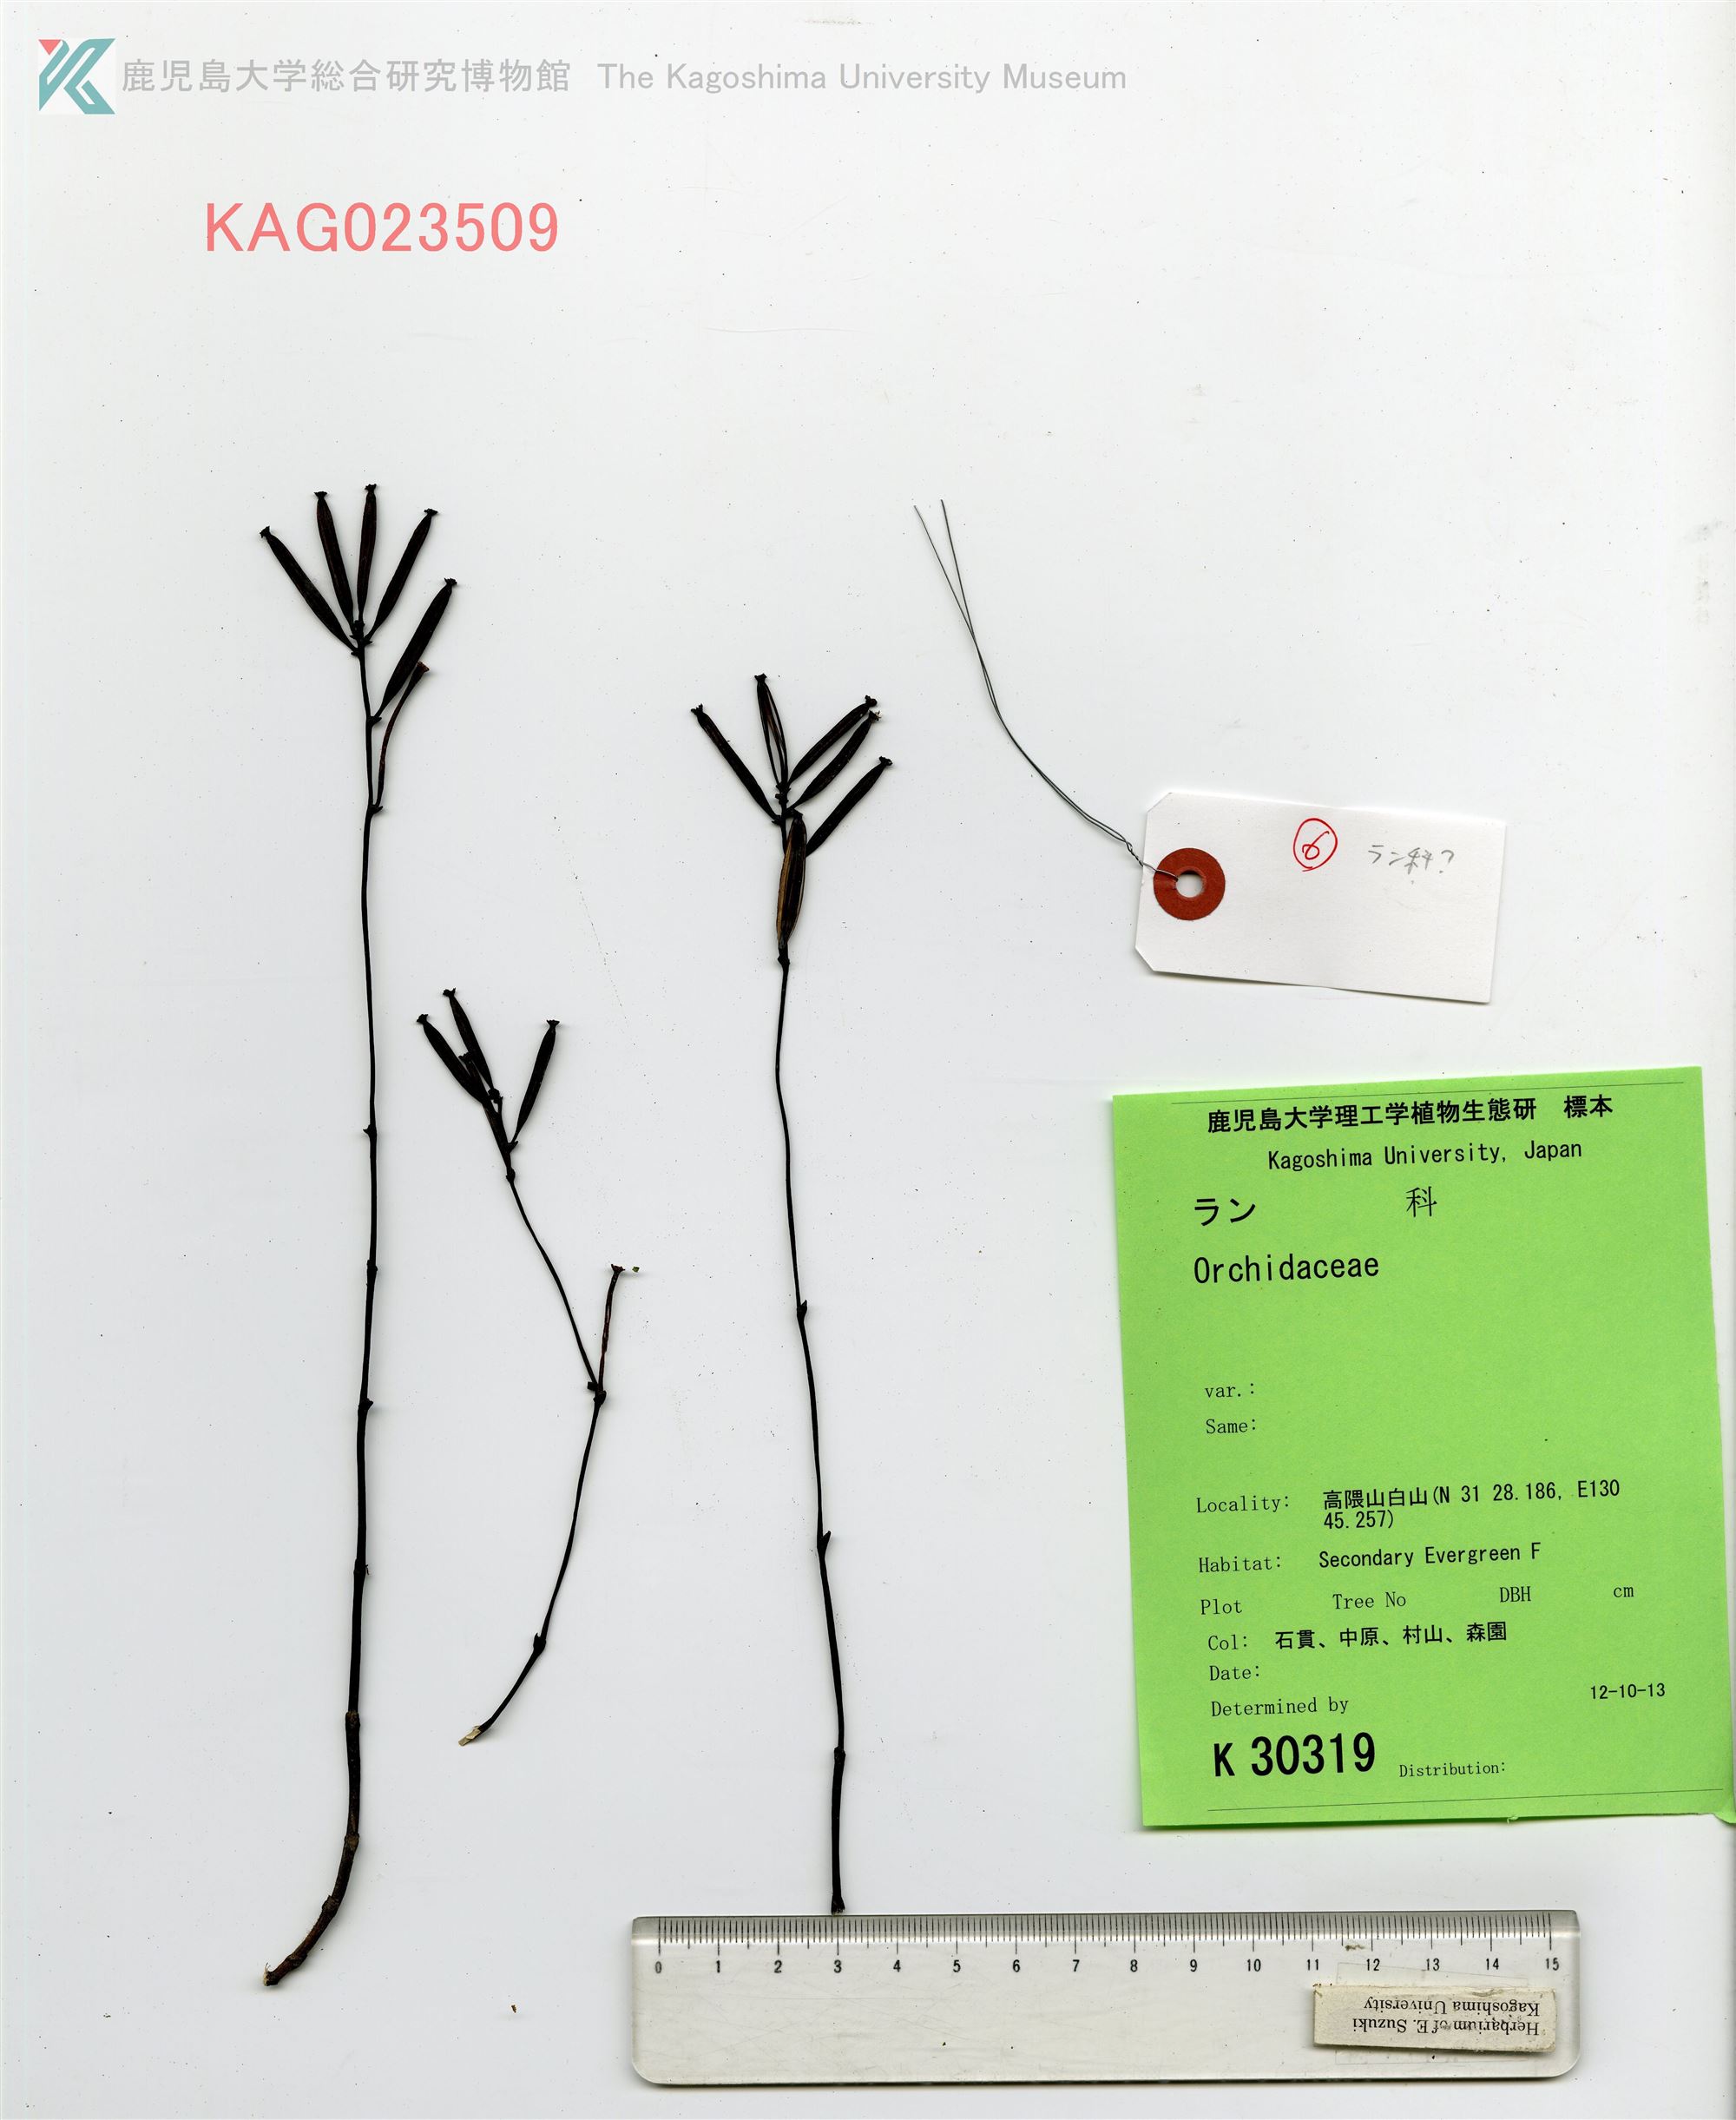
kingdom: Plantae
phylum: Tracheophyta
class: Liliopsida
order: Asparagales
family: Orchidaceae
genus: Lecanorchis
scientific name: Lecanorchis japonica
